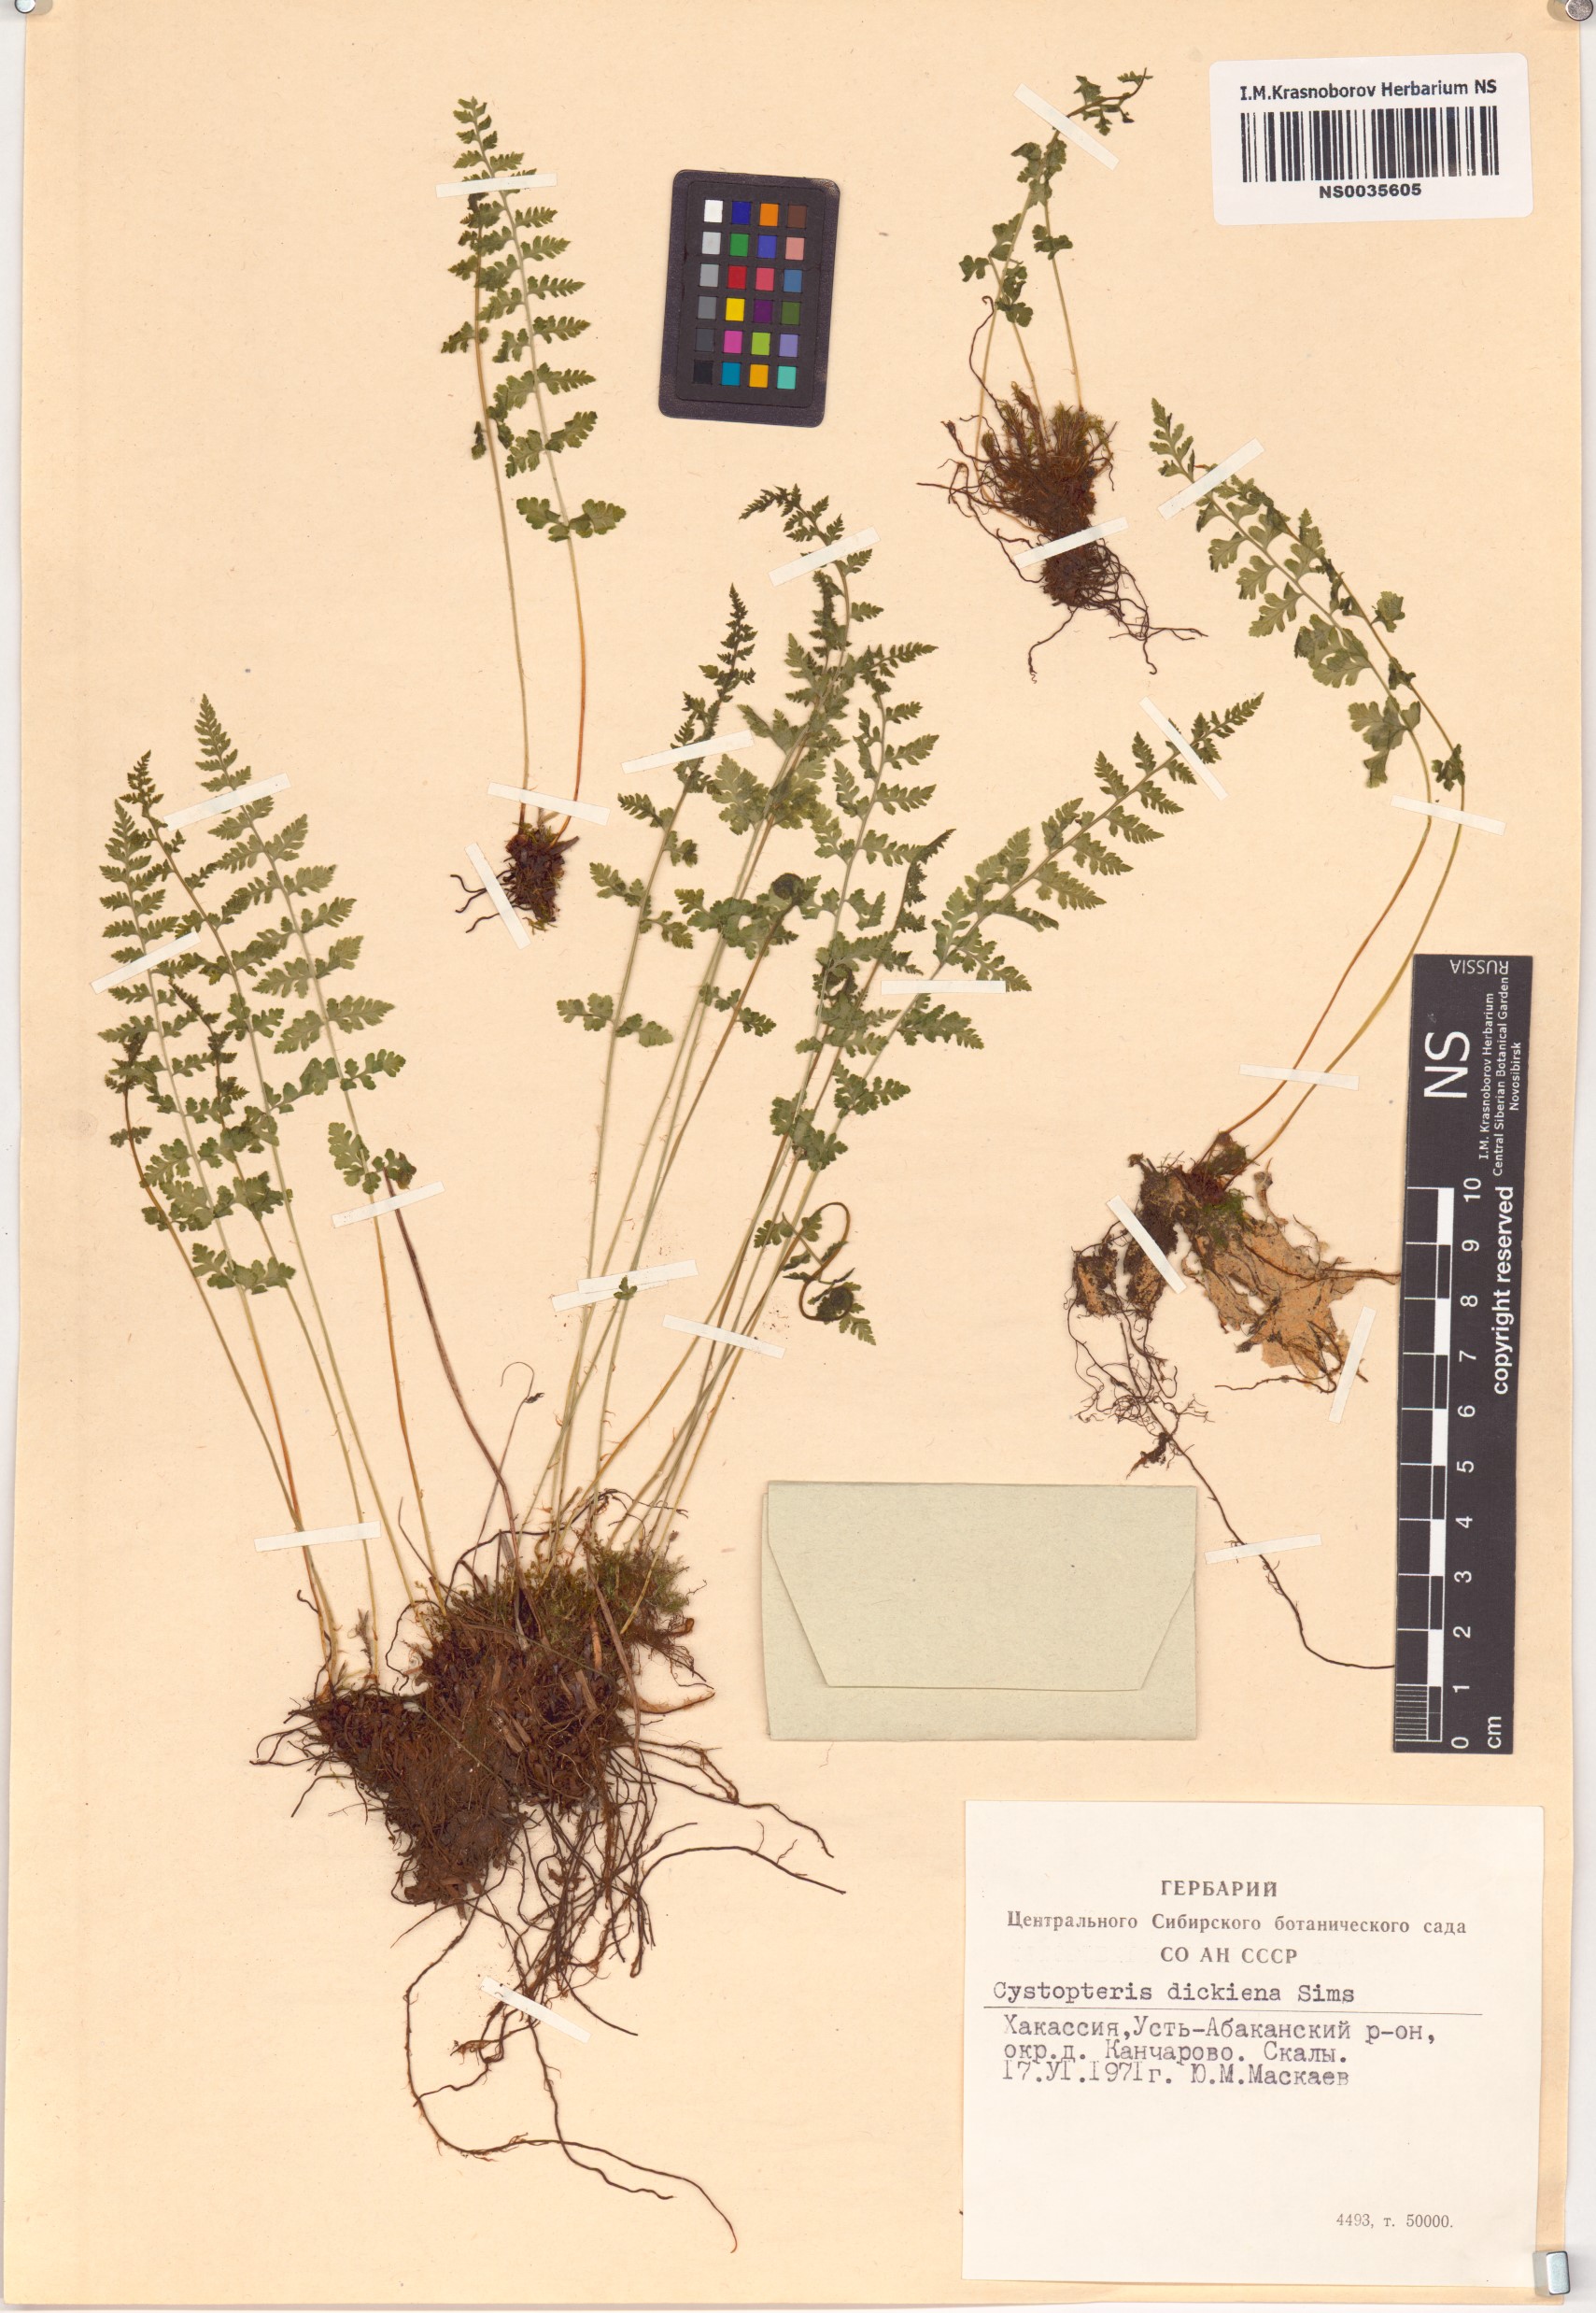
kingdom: Plantae
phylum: Tracheophyta
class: Polypodiopsida
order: Polypodiales
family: Cystopteridaceae
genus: Cystopteris
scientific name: Cystopteris dickieana
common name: Dickie's bladder-fern
